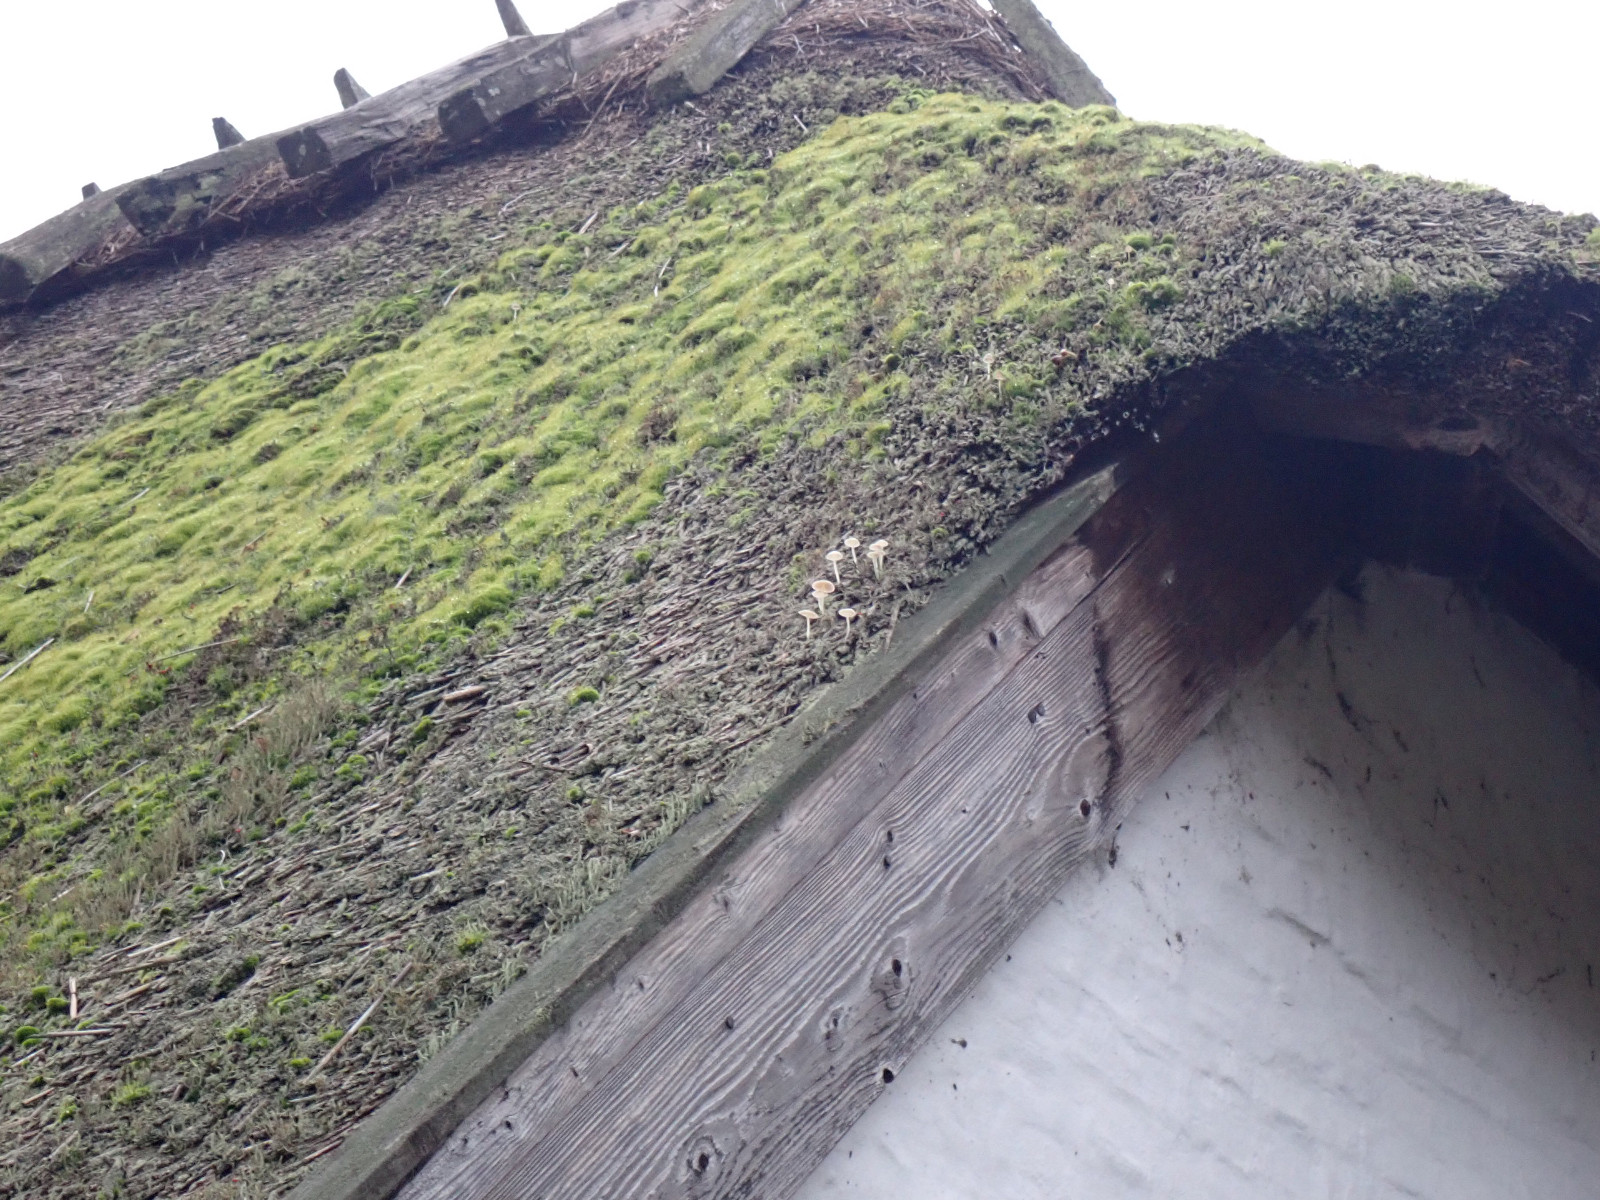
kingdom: Fungi
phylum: Basidiomycota
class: Agaricomycetes
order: Agaricales
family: Mycenaceae
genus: Mycena
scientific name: Mycena
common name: huesvamp
